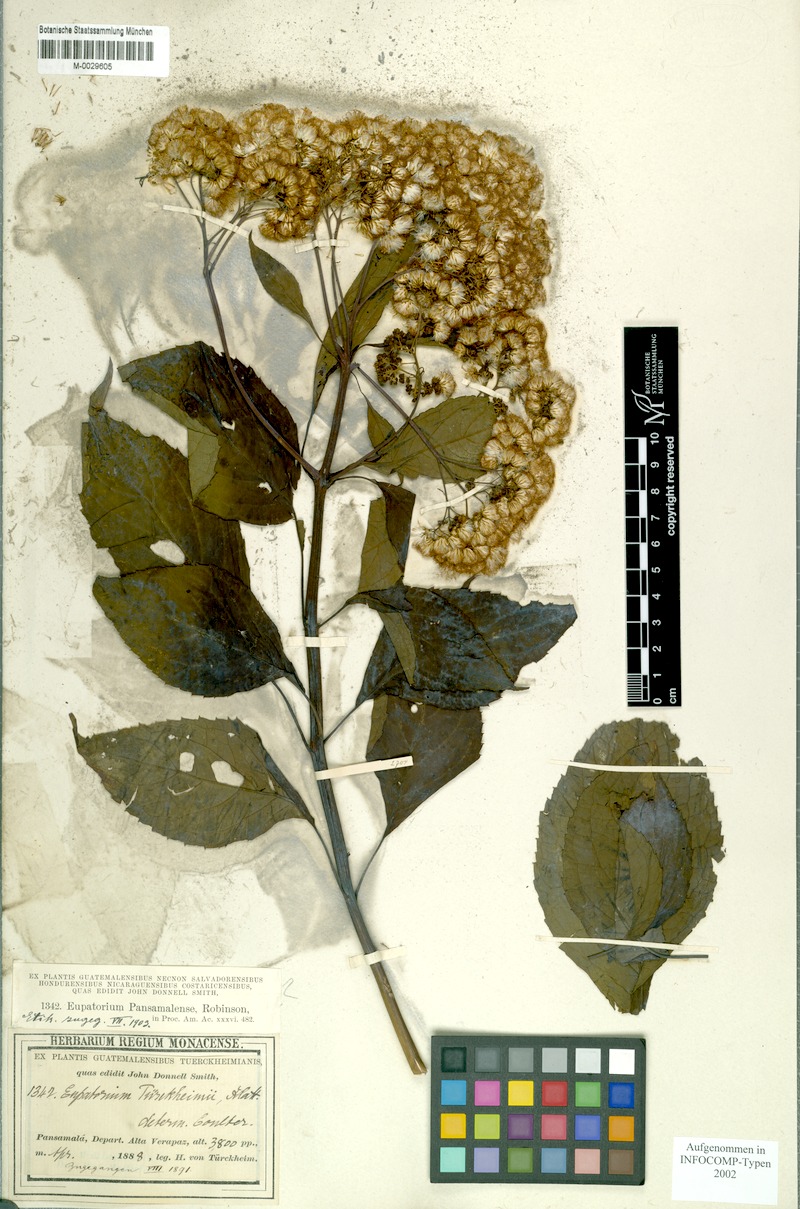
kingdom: Plantae
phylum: Tracheophyta
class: Magnoliopsida
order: Asterales
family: Asteraceae
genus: Bartlettina
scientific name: Bartlettina pansamalensis
